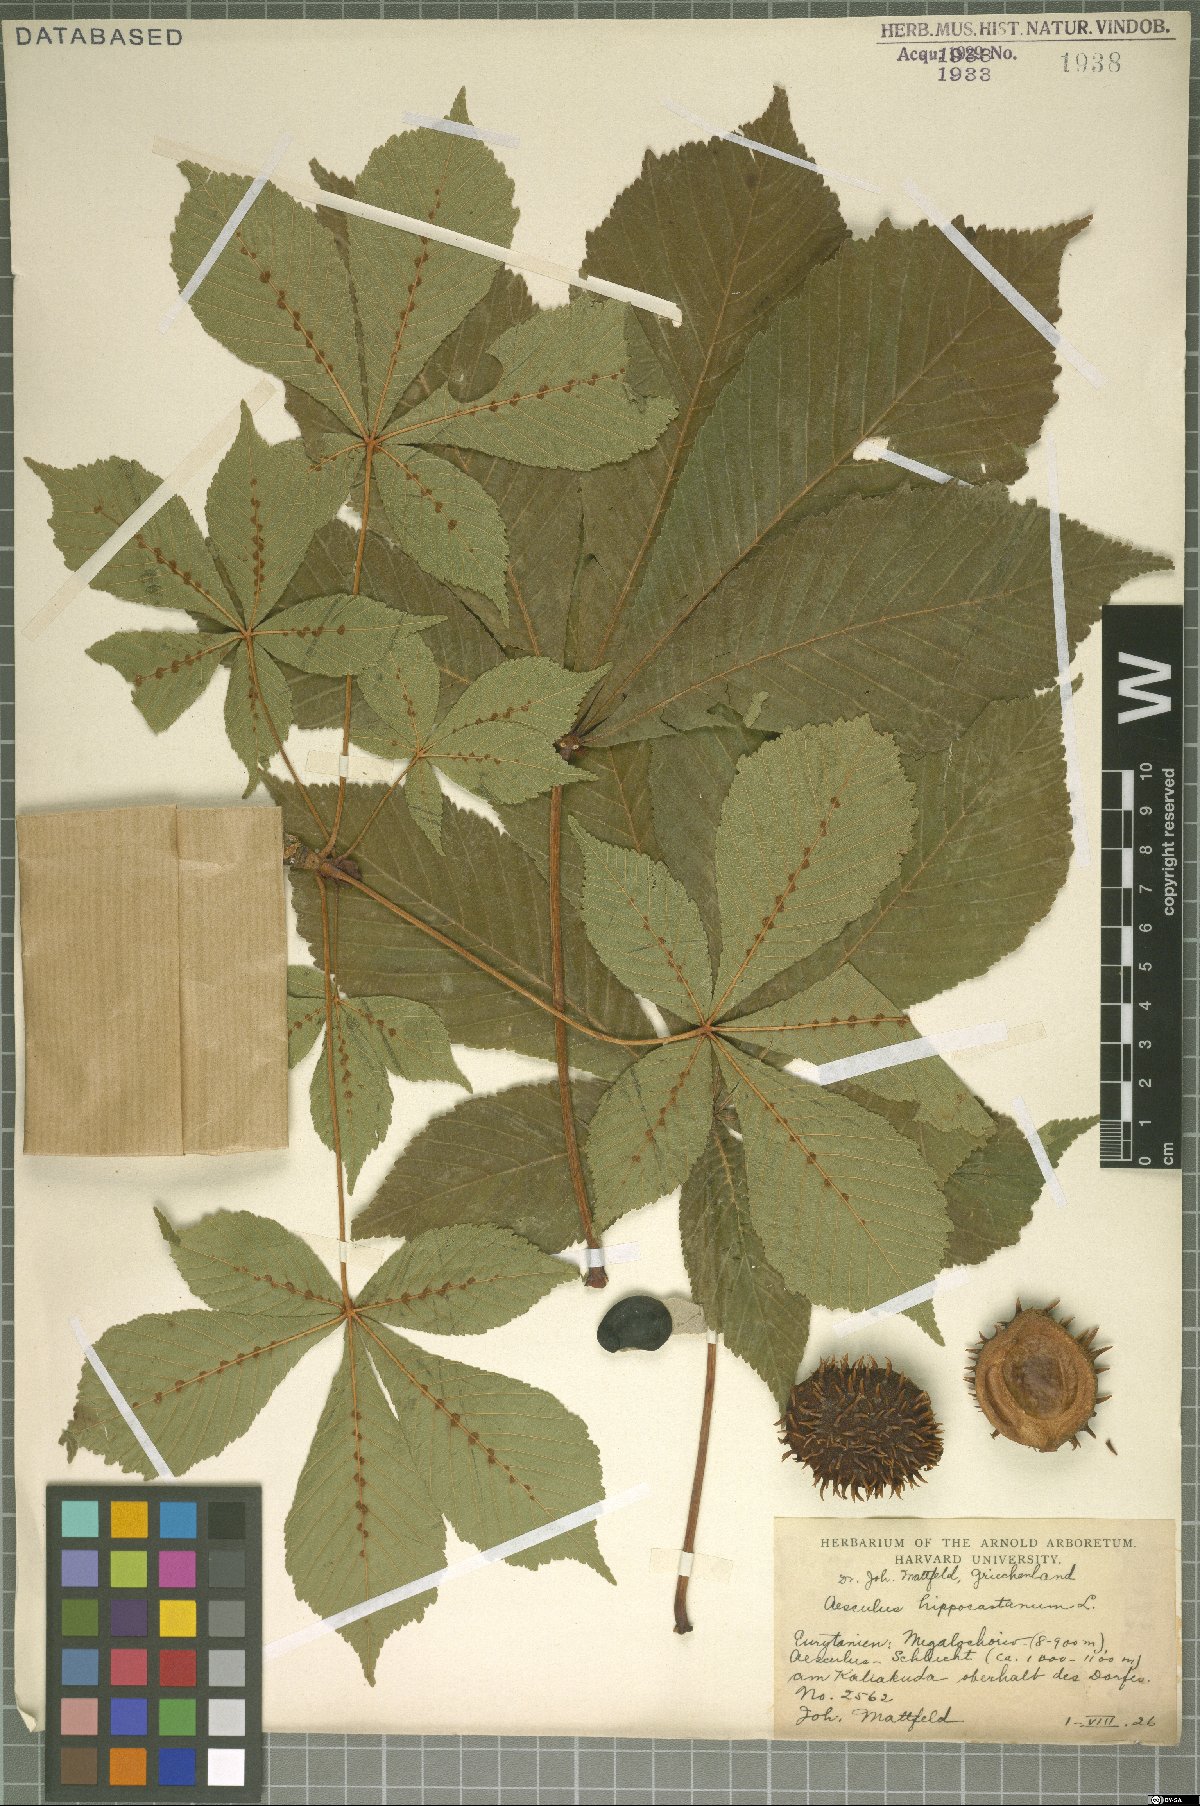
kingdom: Plantae
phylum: Tracheophyta
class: Magnoliopsida
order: Sapindales
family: Sapindaceae
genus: Aesculus
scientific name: Aesculus hippocastanum
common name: Horse-chestnut
